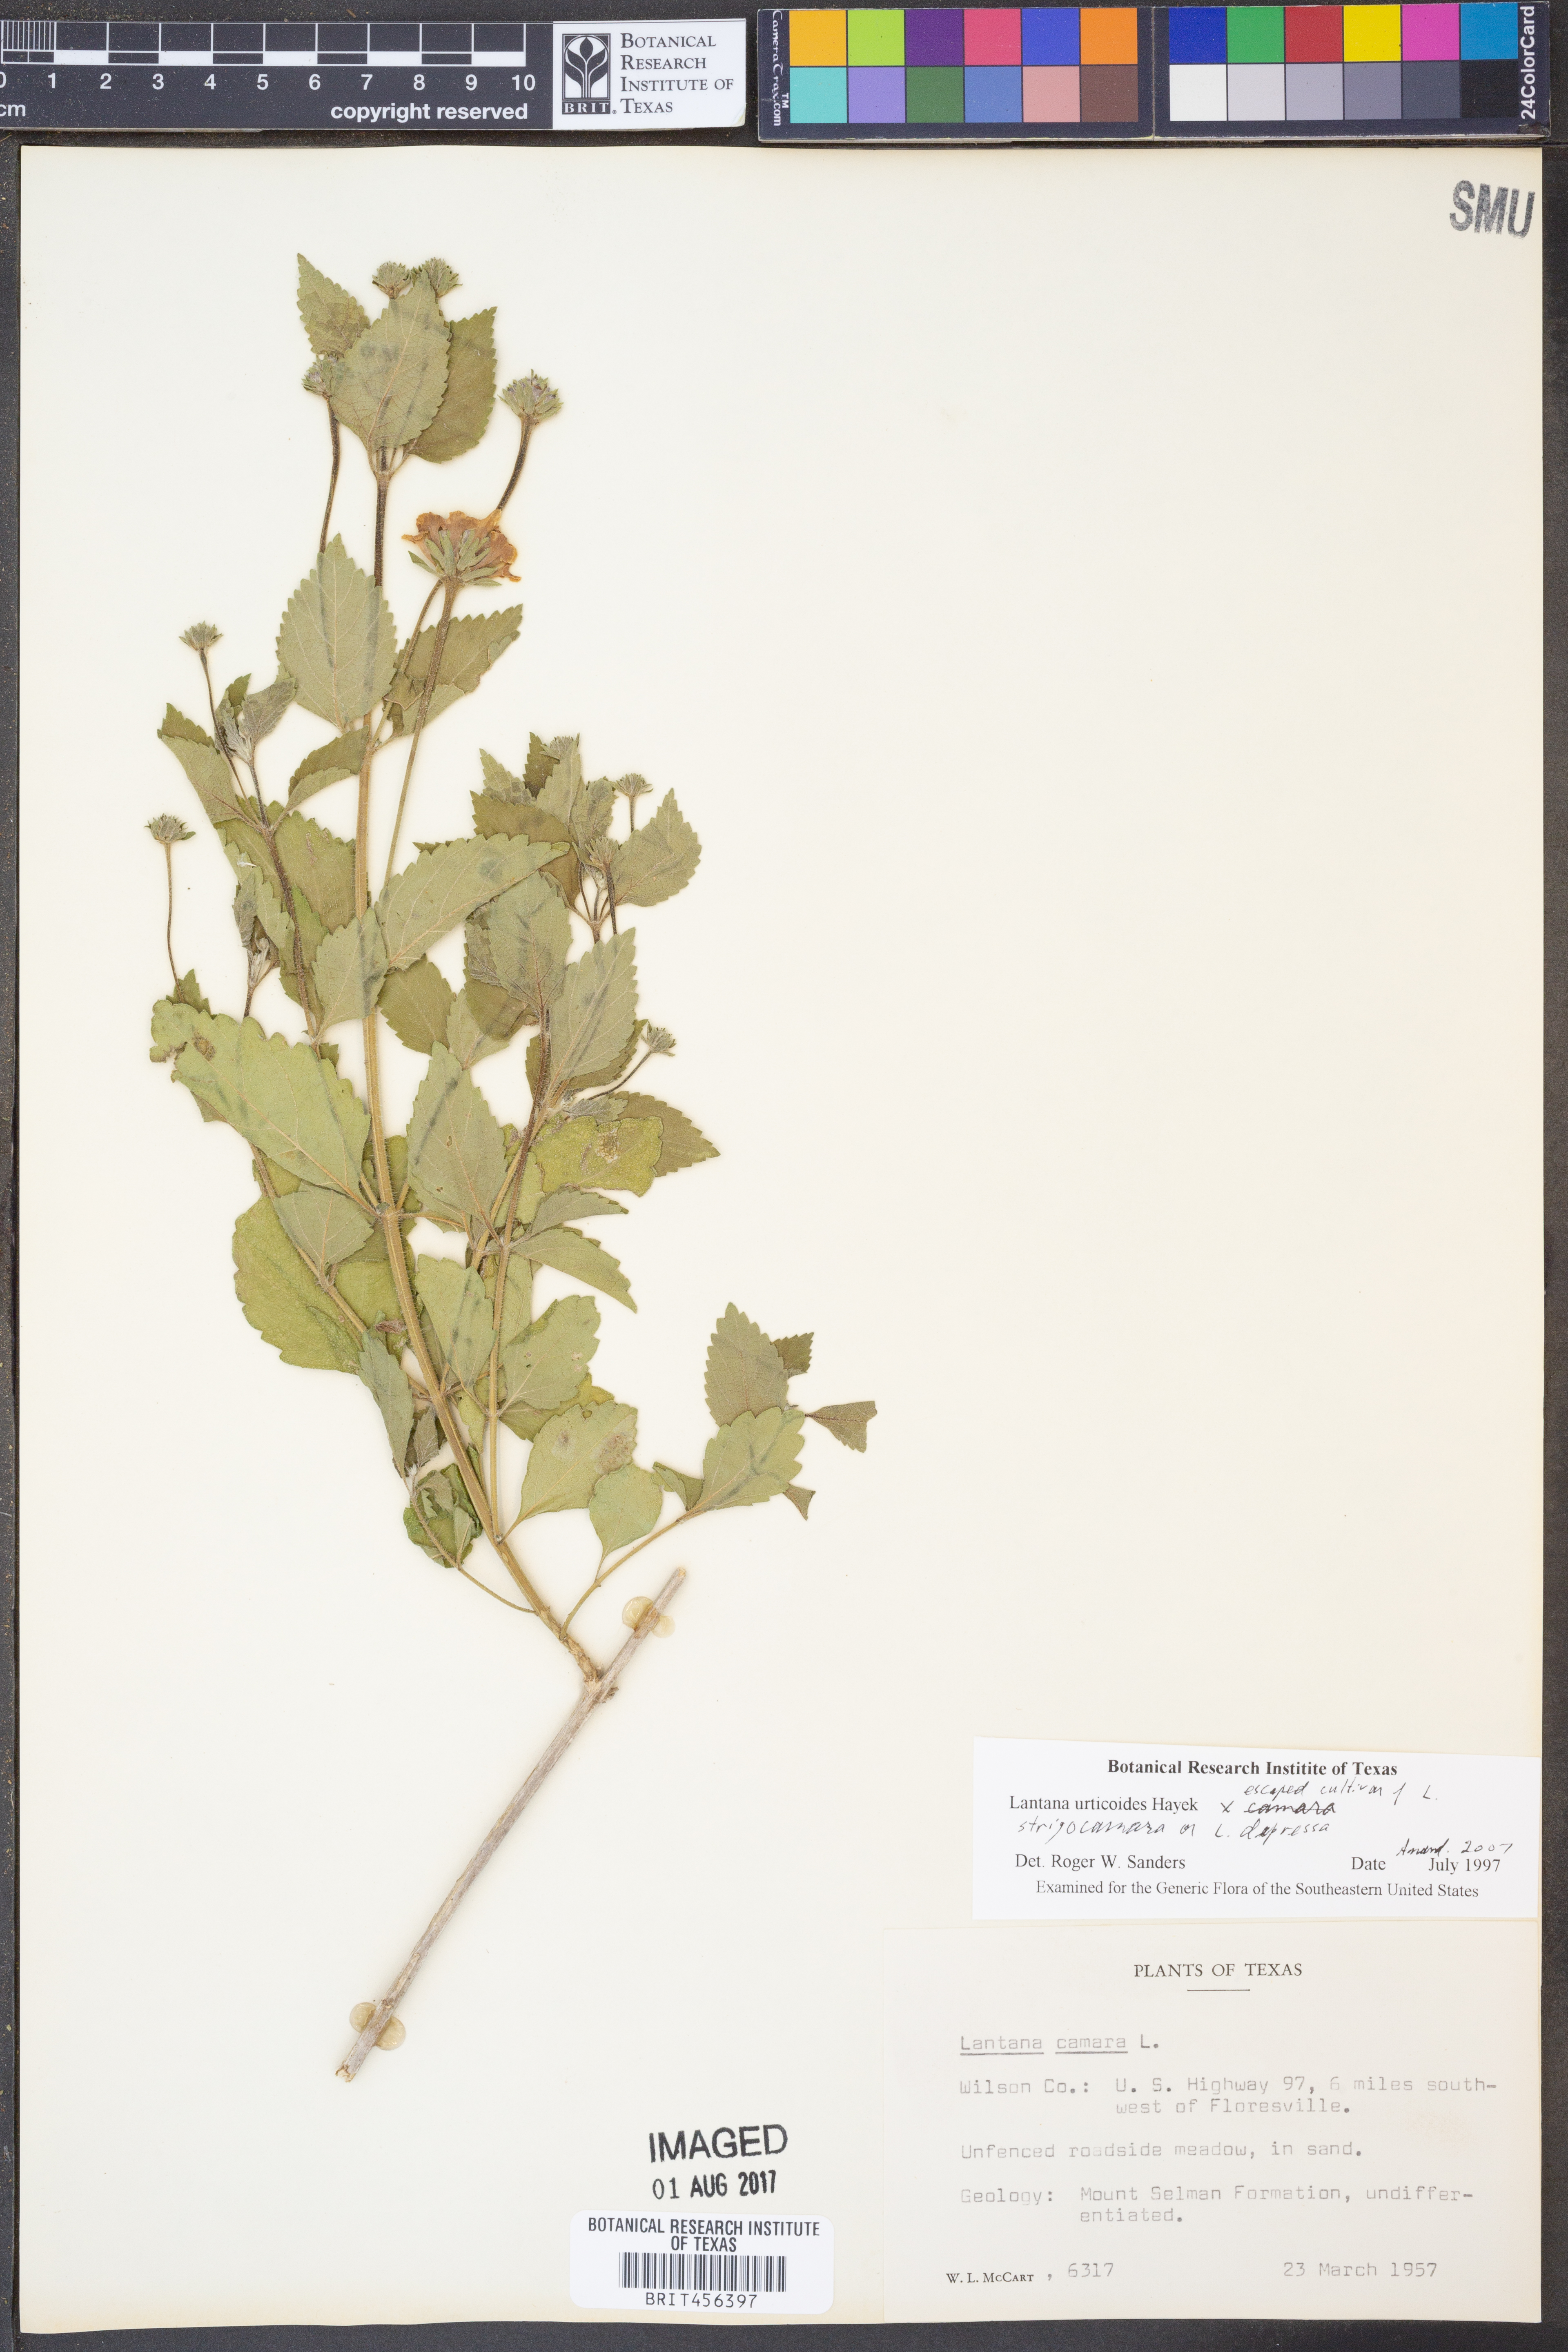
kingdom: Plantae
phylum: Tracheophyta
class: Magnoliopsida
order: Lamiales
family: Verbenaceae
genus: Lantana
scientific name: Lantana urticoides
